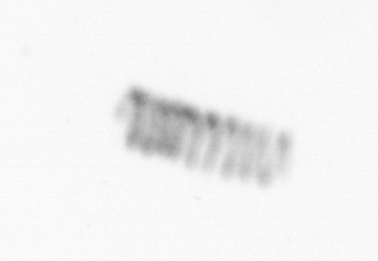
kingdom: Chromista
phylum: Ochrophyta
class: Bacillariophyceae
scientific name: Bacillariophyceae
